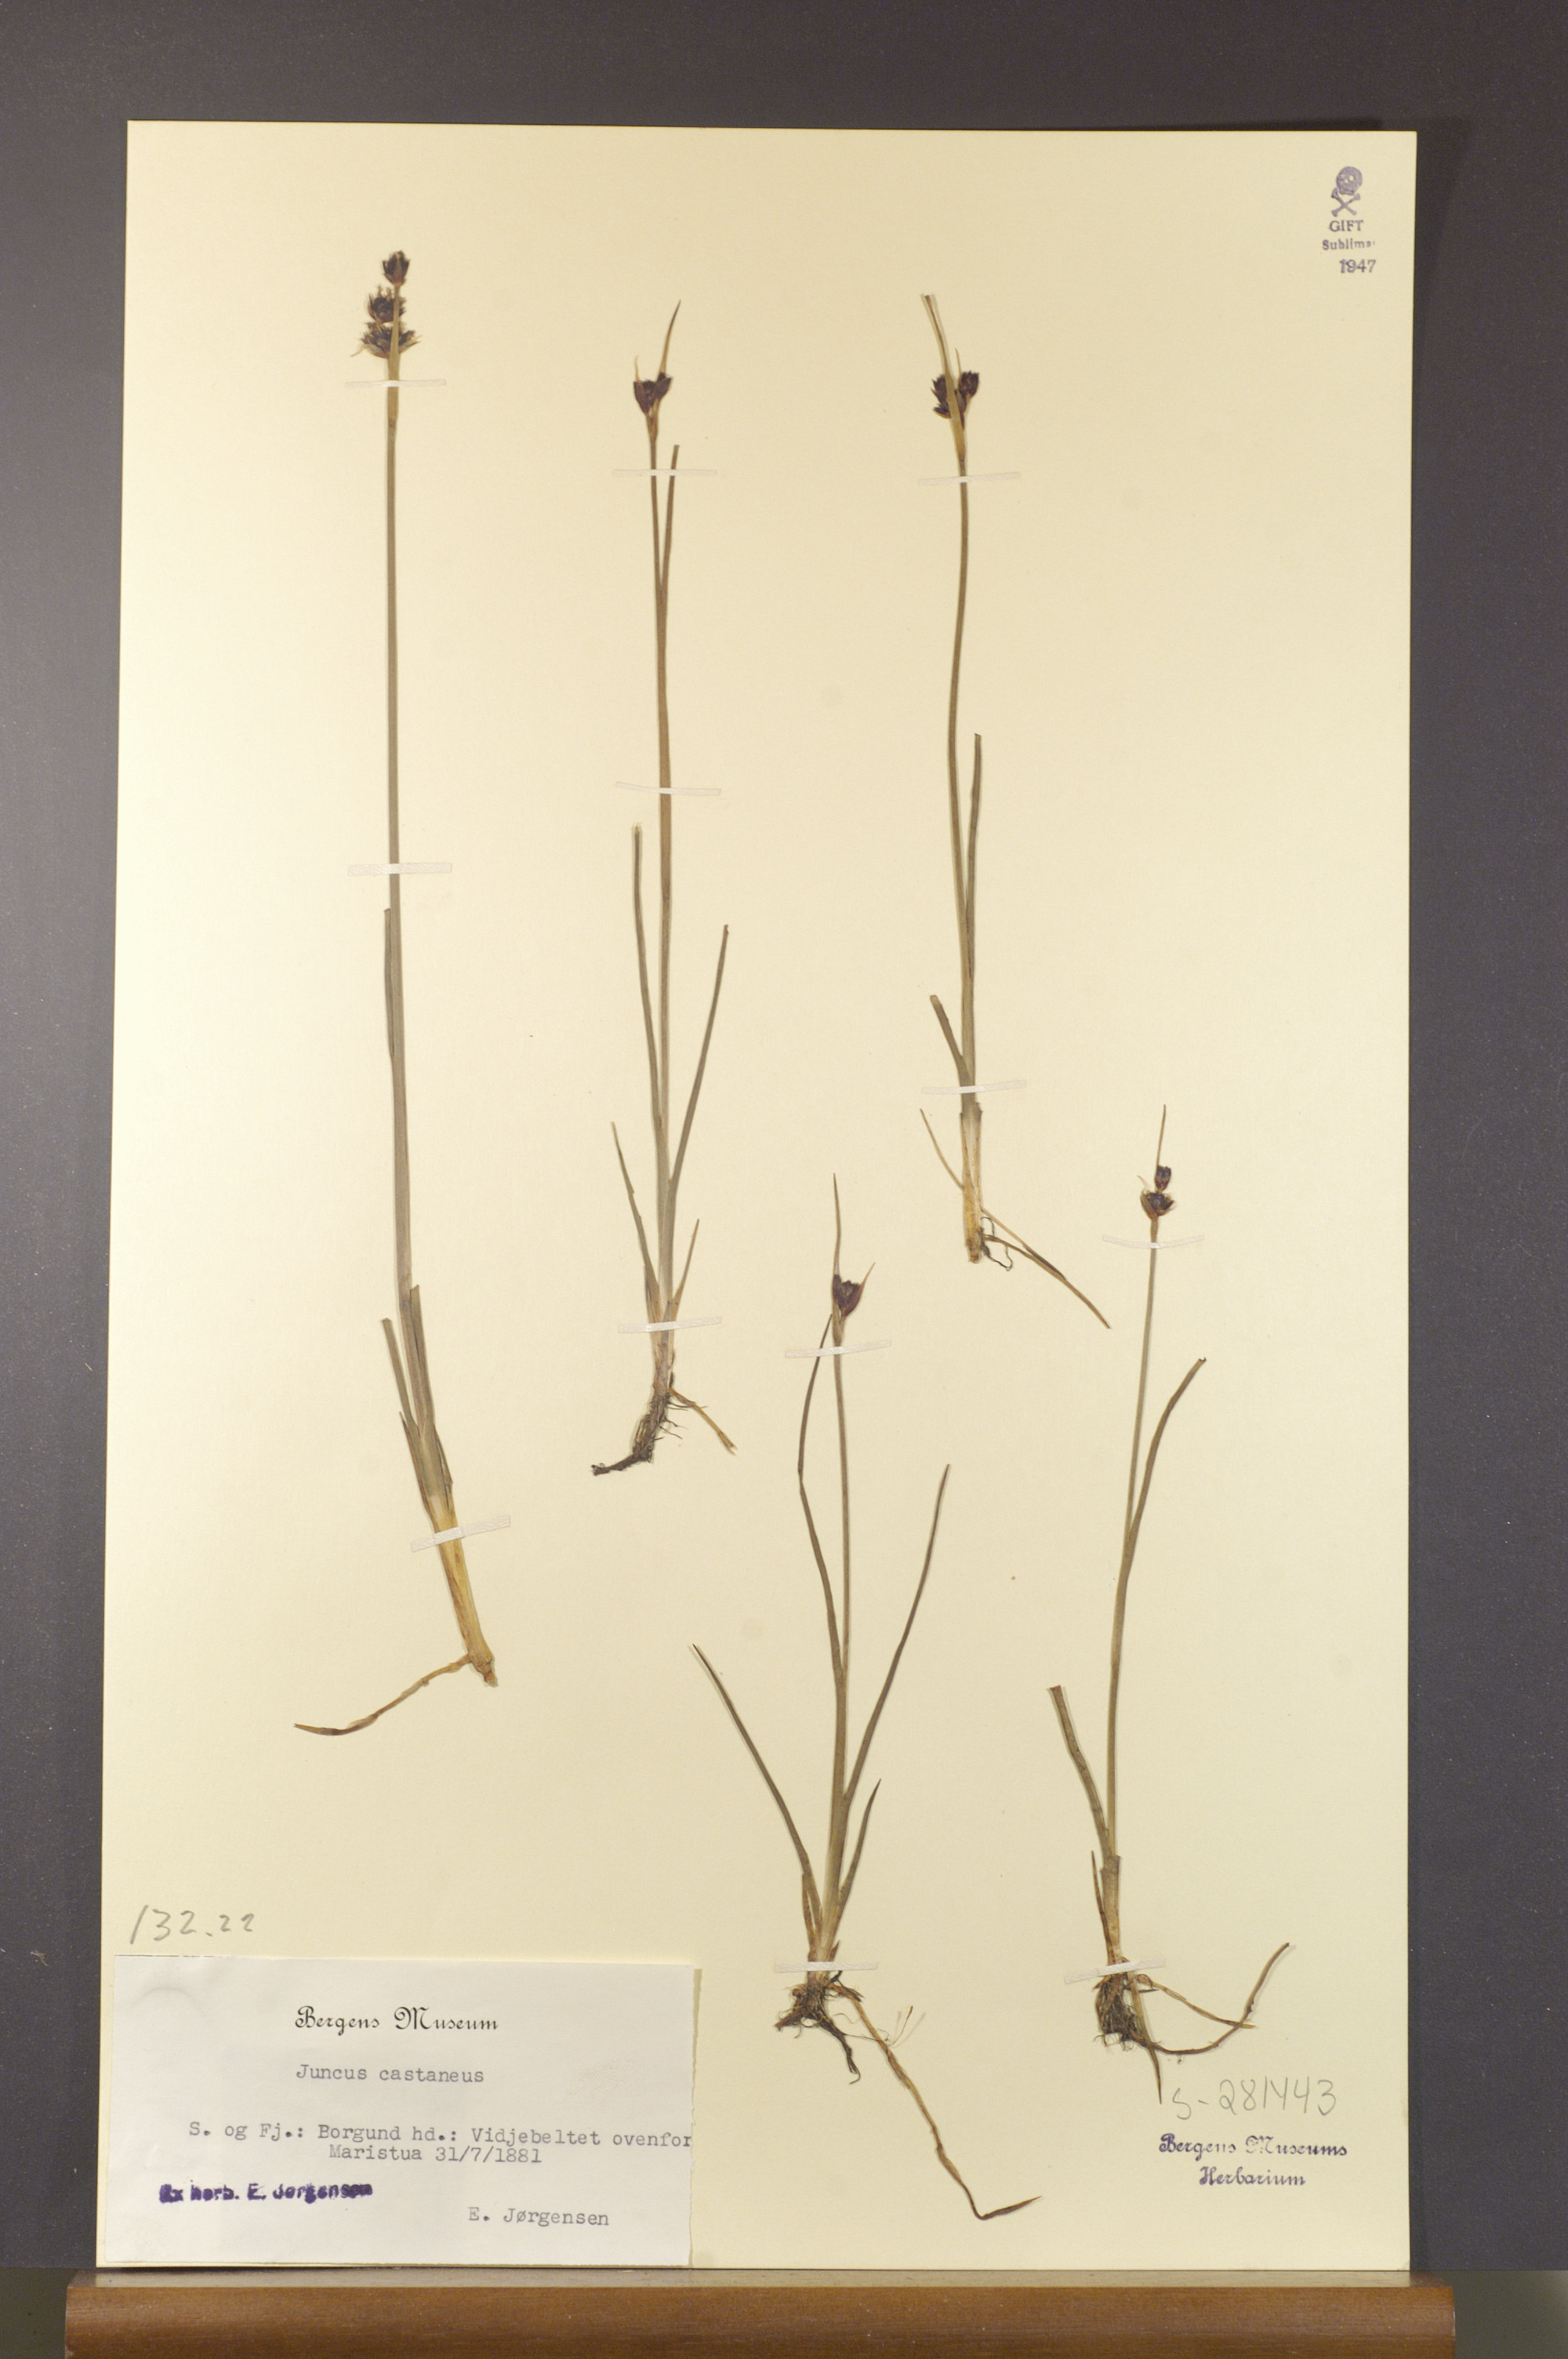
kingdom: Plantae
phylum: Tracheophyta
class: Liliopsida
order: Poales
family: Juncaceae
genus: Juncus
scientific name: Juncus castaneus
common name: Chestnut rush
